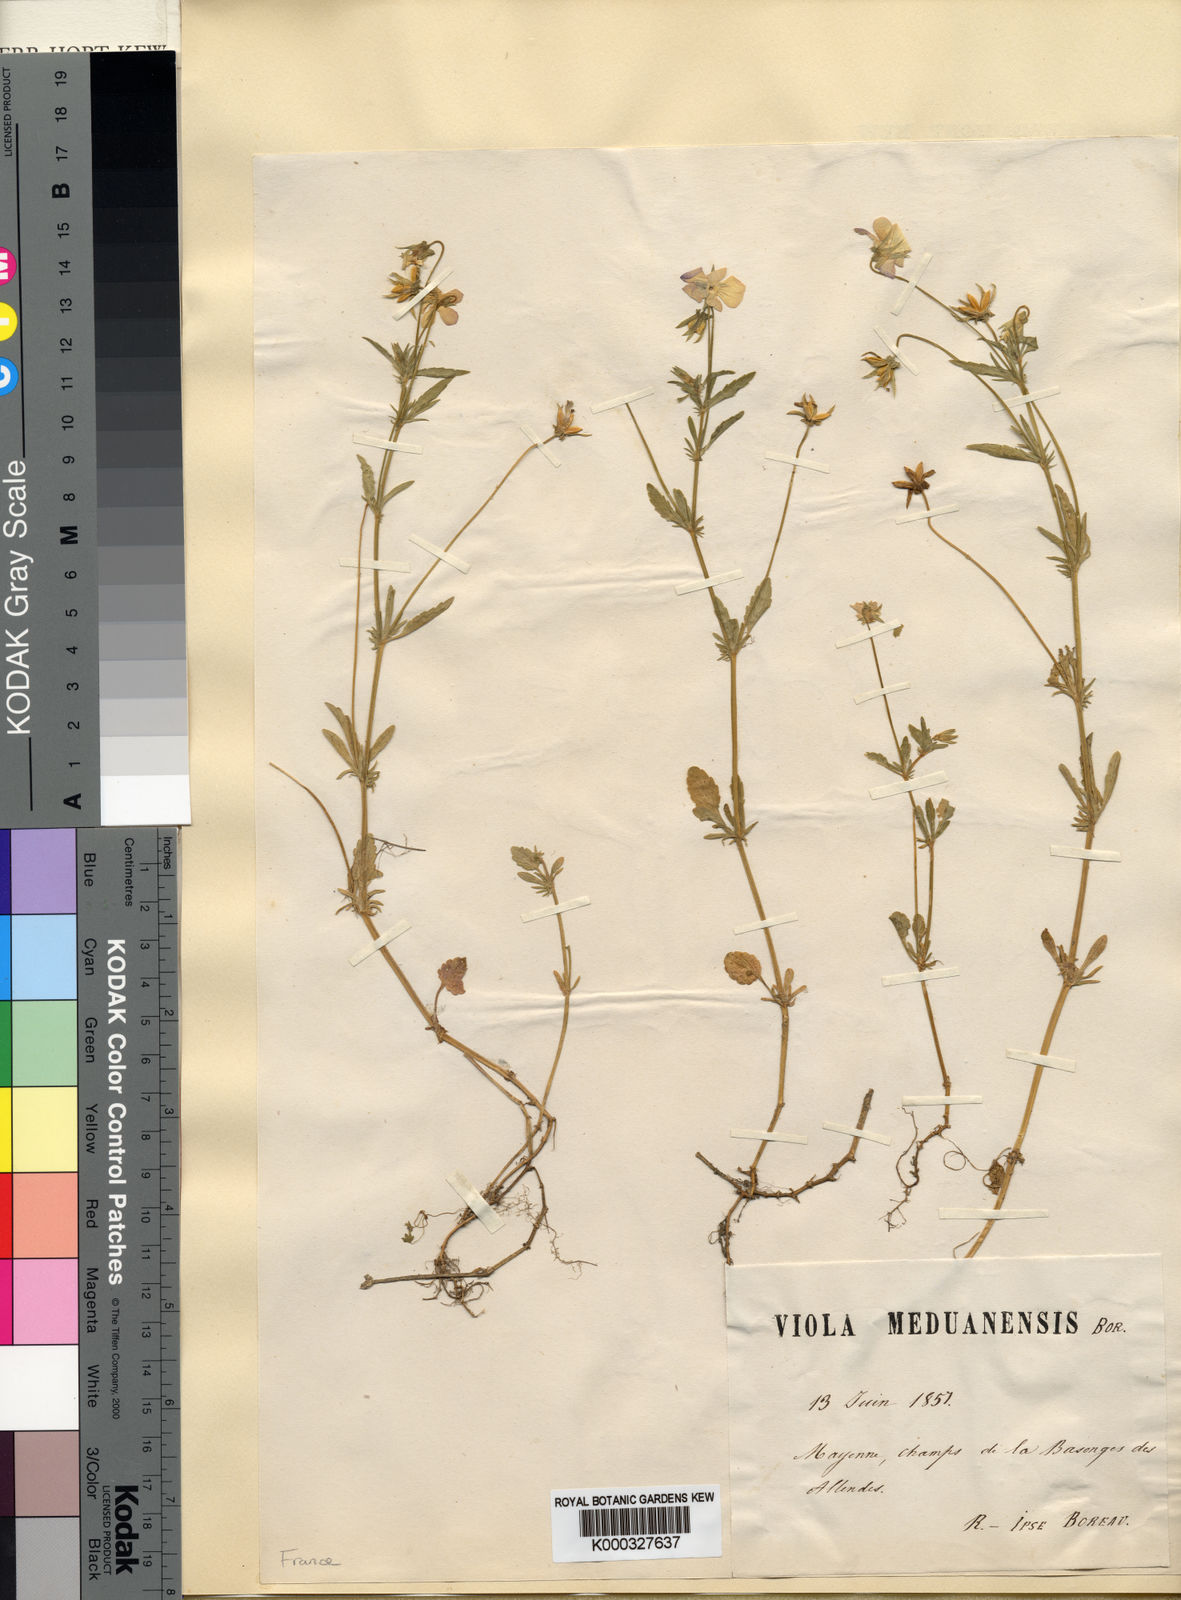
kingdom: Plantae
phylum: Tracheophyta
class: Magnoliopsida
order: Malpighiales
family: Violaceae
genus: Viola
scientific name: Viola tricolor
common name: Pansy
